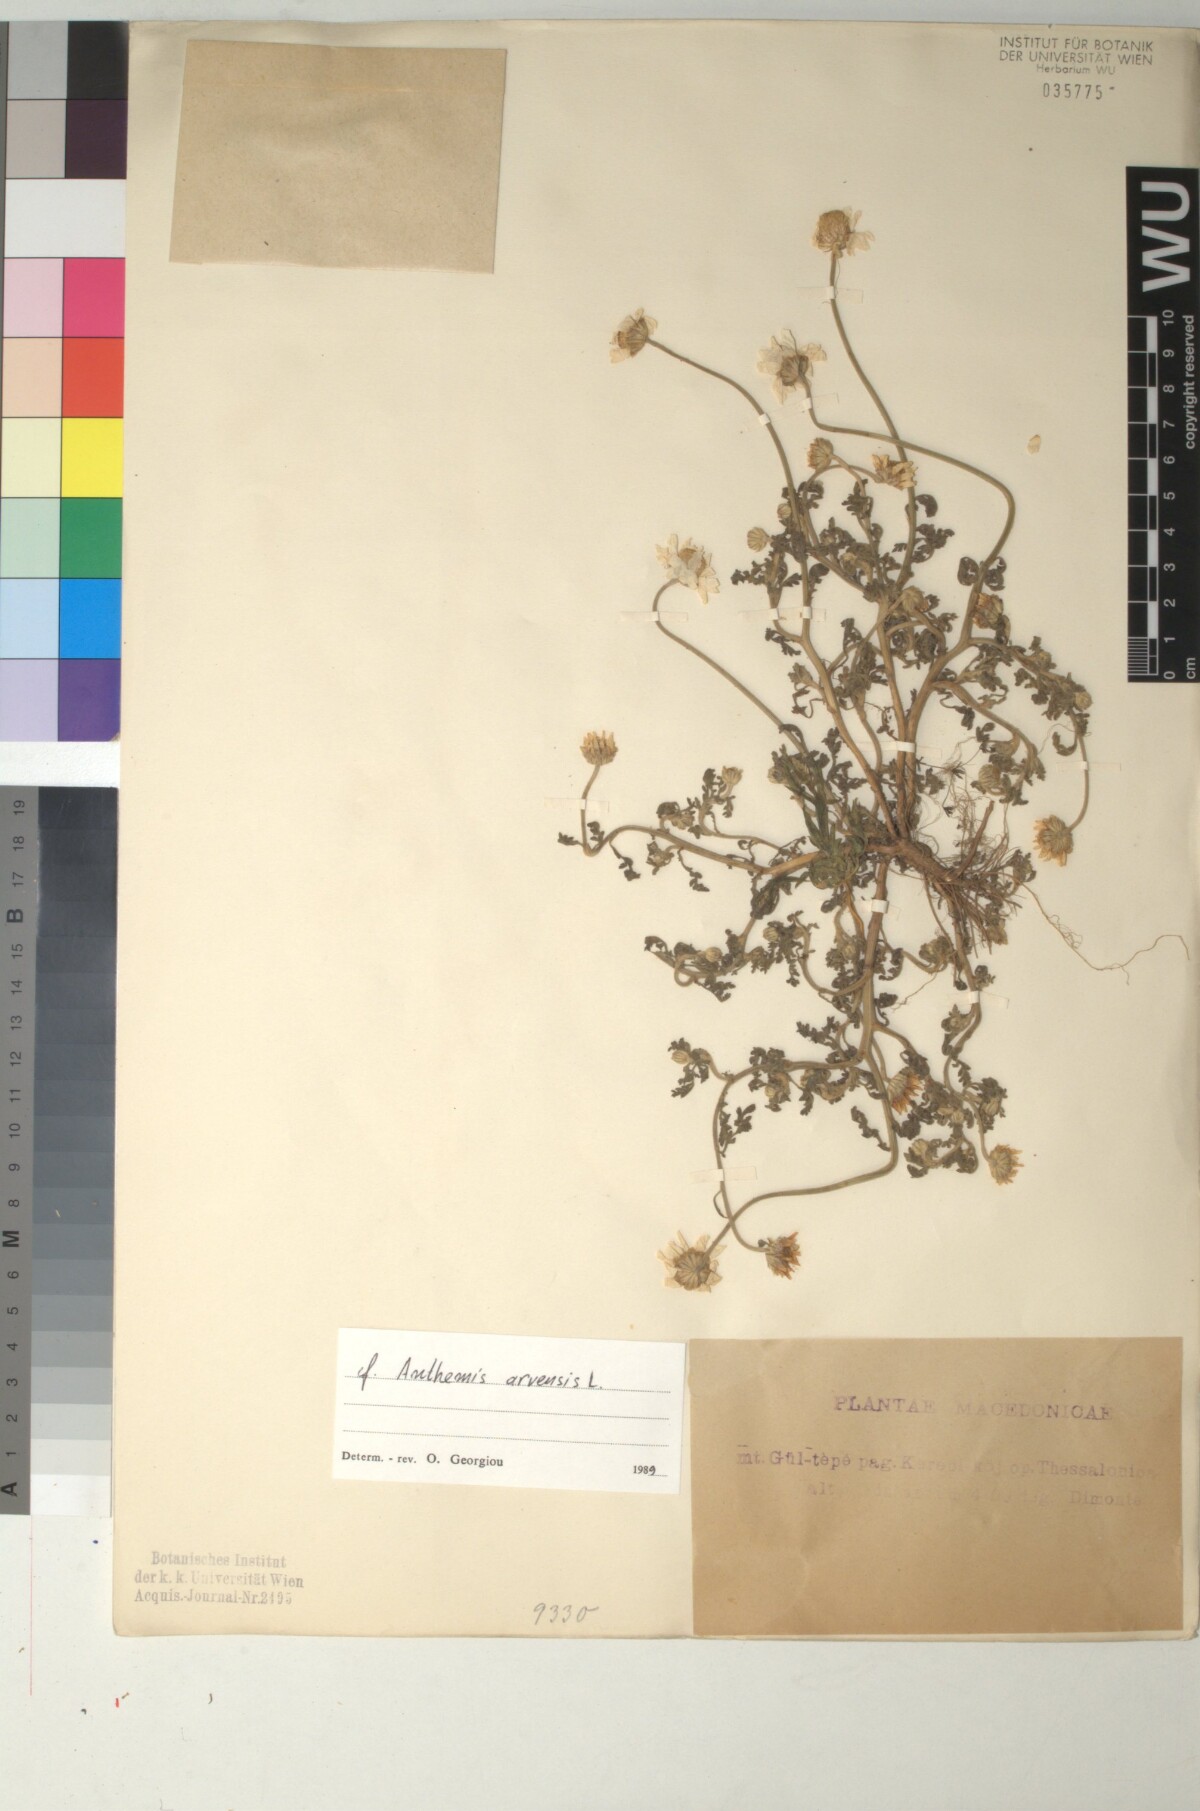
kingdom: Plantae
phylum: Tracheophyta
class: Magnoliopsida
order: Asterales
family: Asteraceae
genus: Anthemis
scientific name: Anthemis arvensis
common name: Corn chamomile
